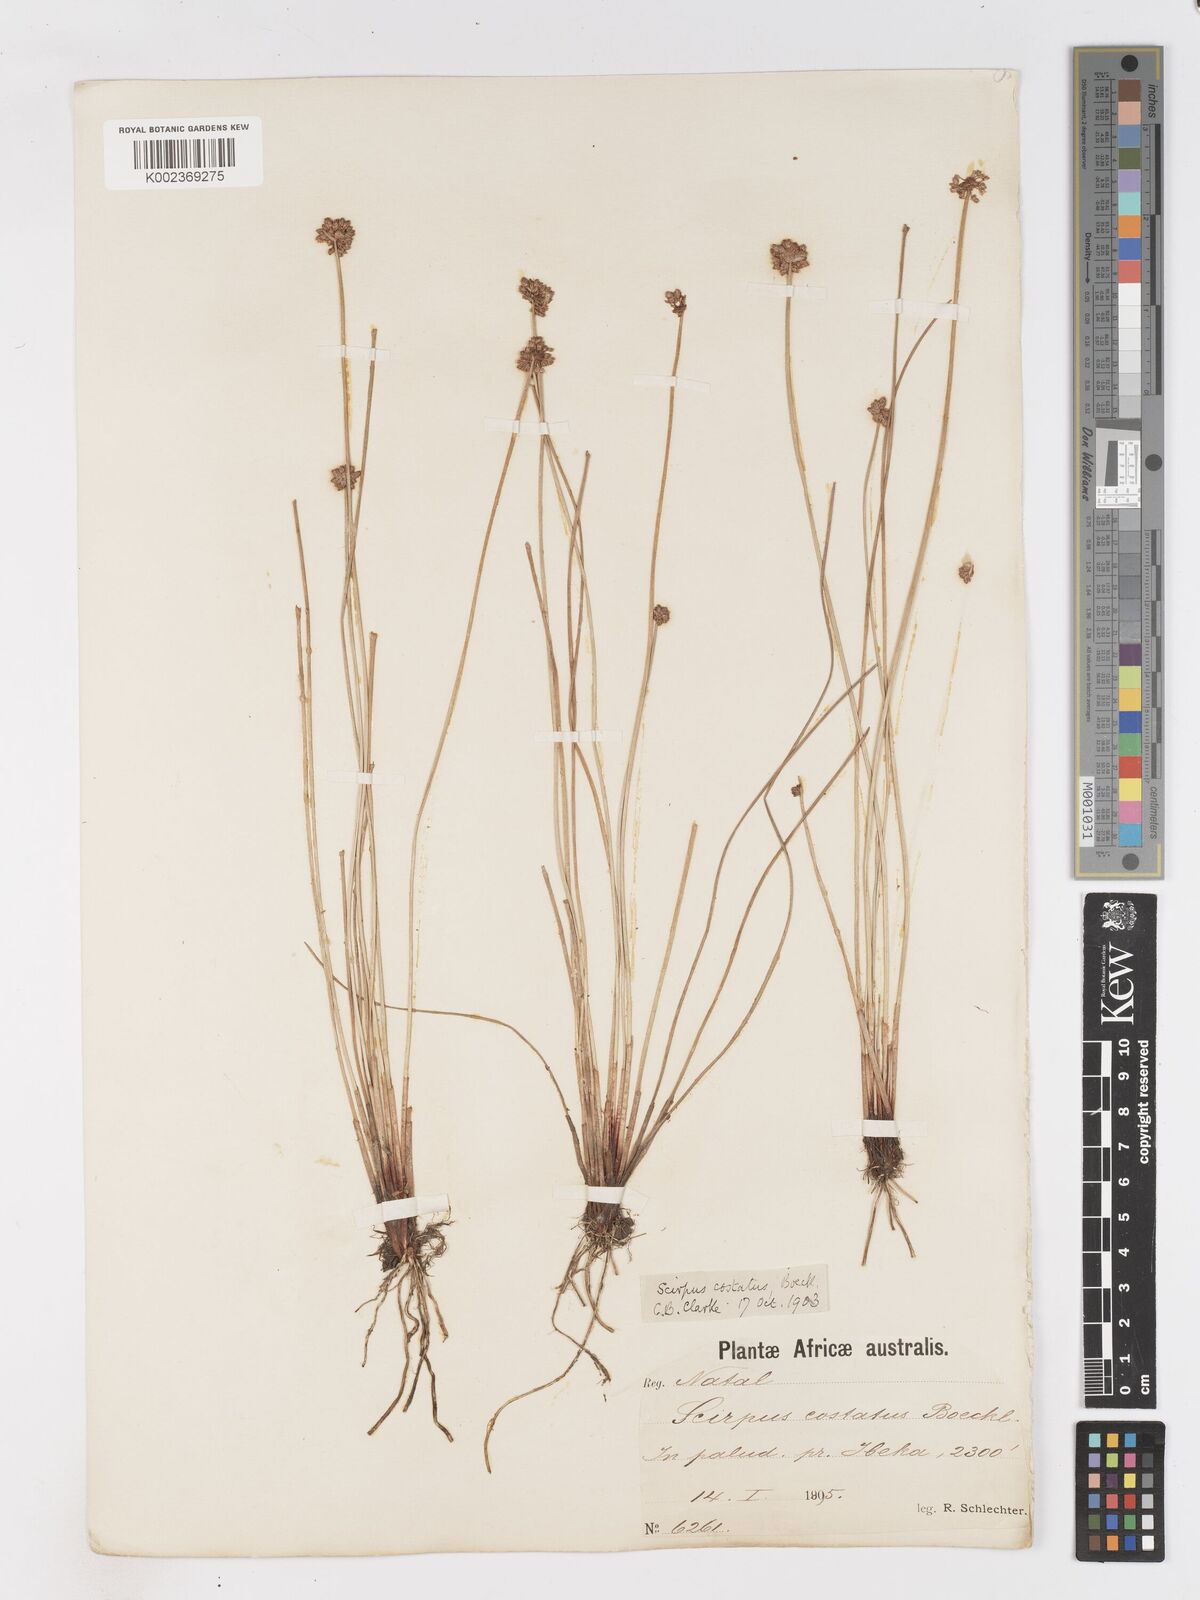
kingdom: Plantae
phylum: Tracheophyta
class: Liliopsida
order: Poales
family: Cyperaceae
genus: Isolepis
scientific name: Isolepis costata
